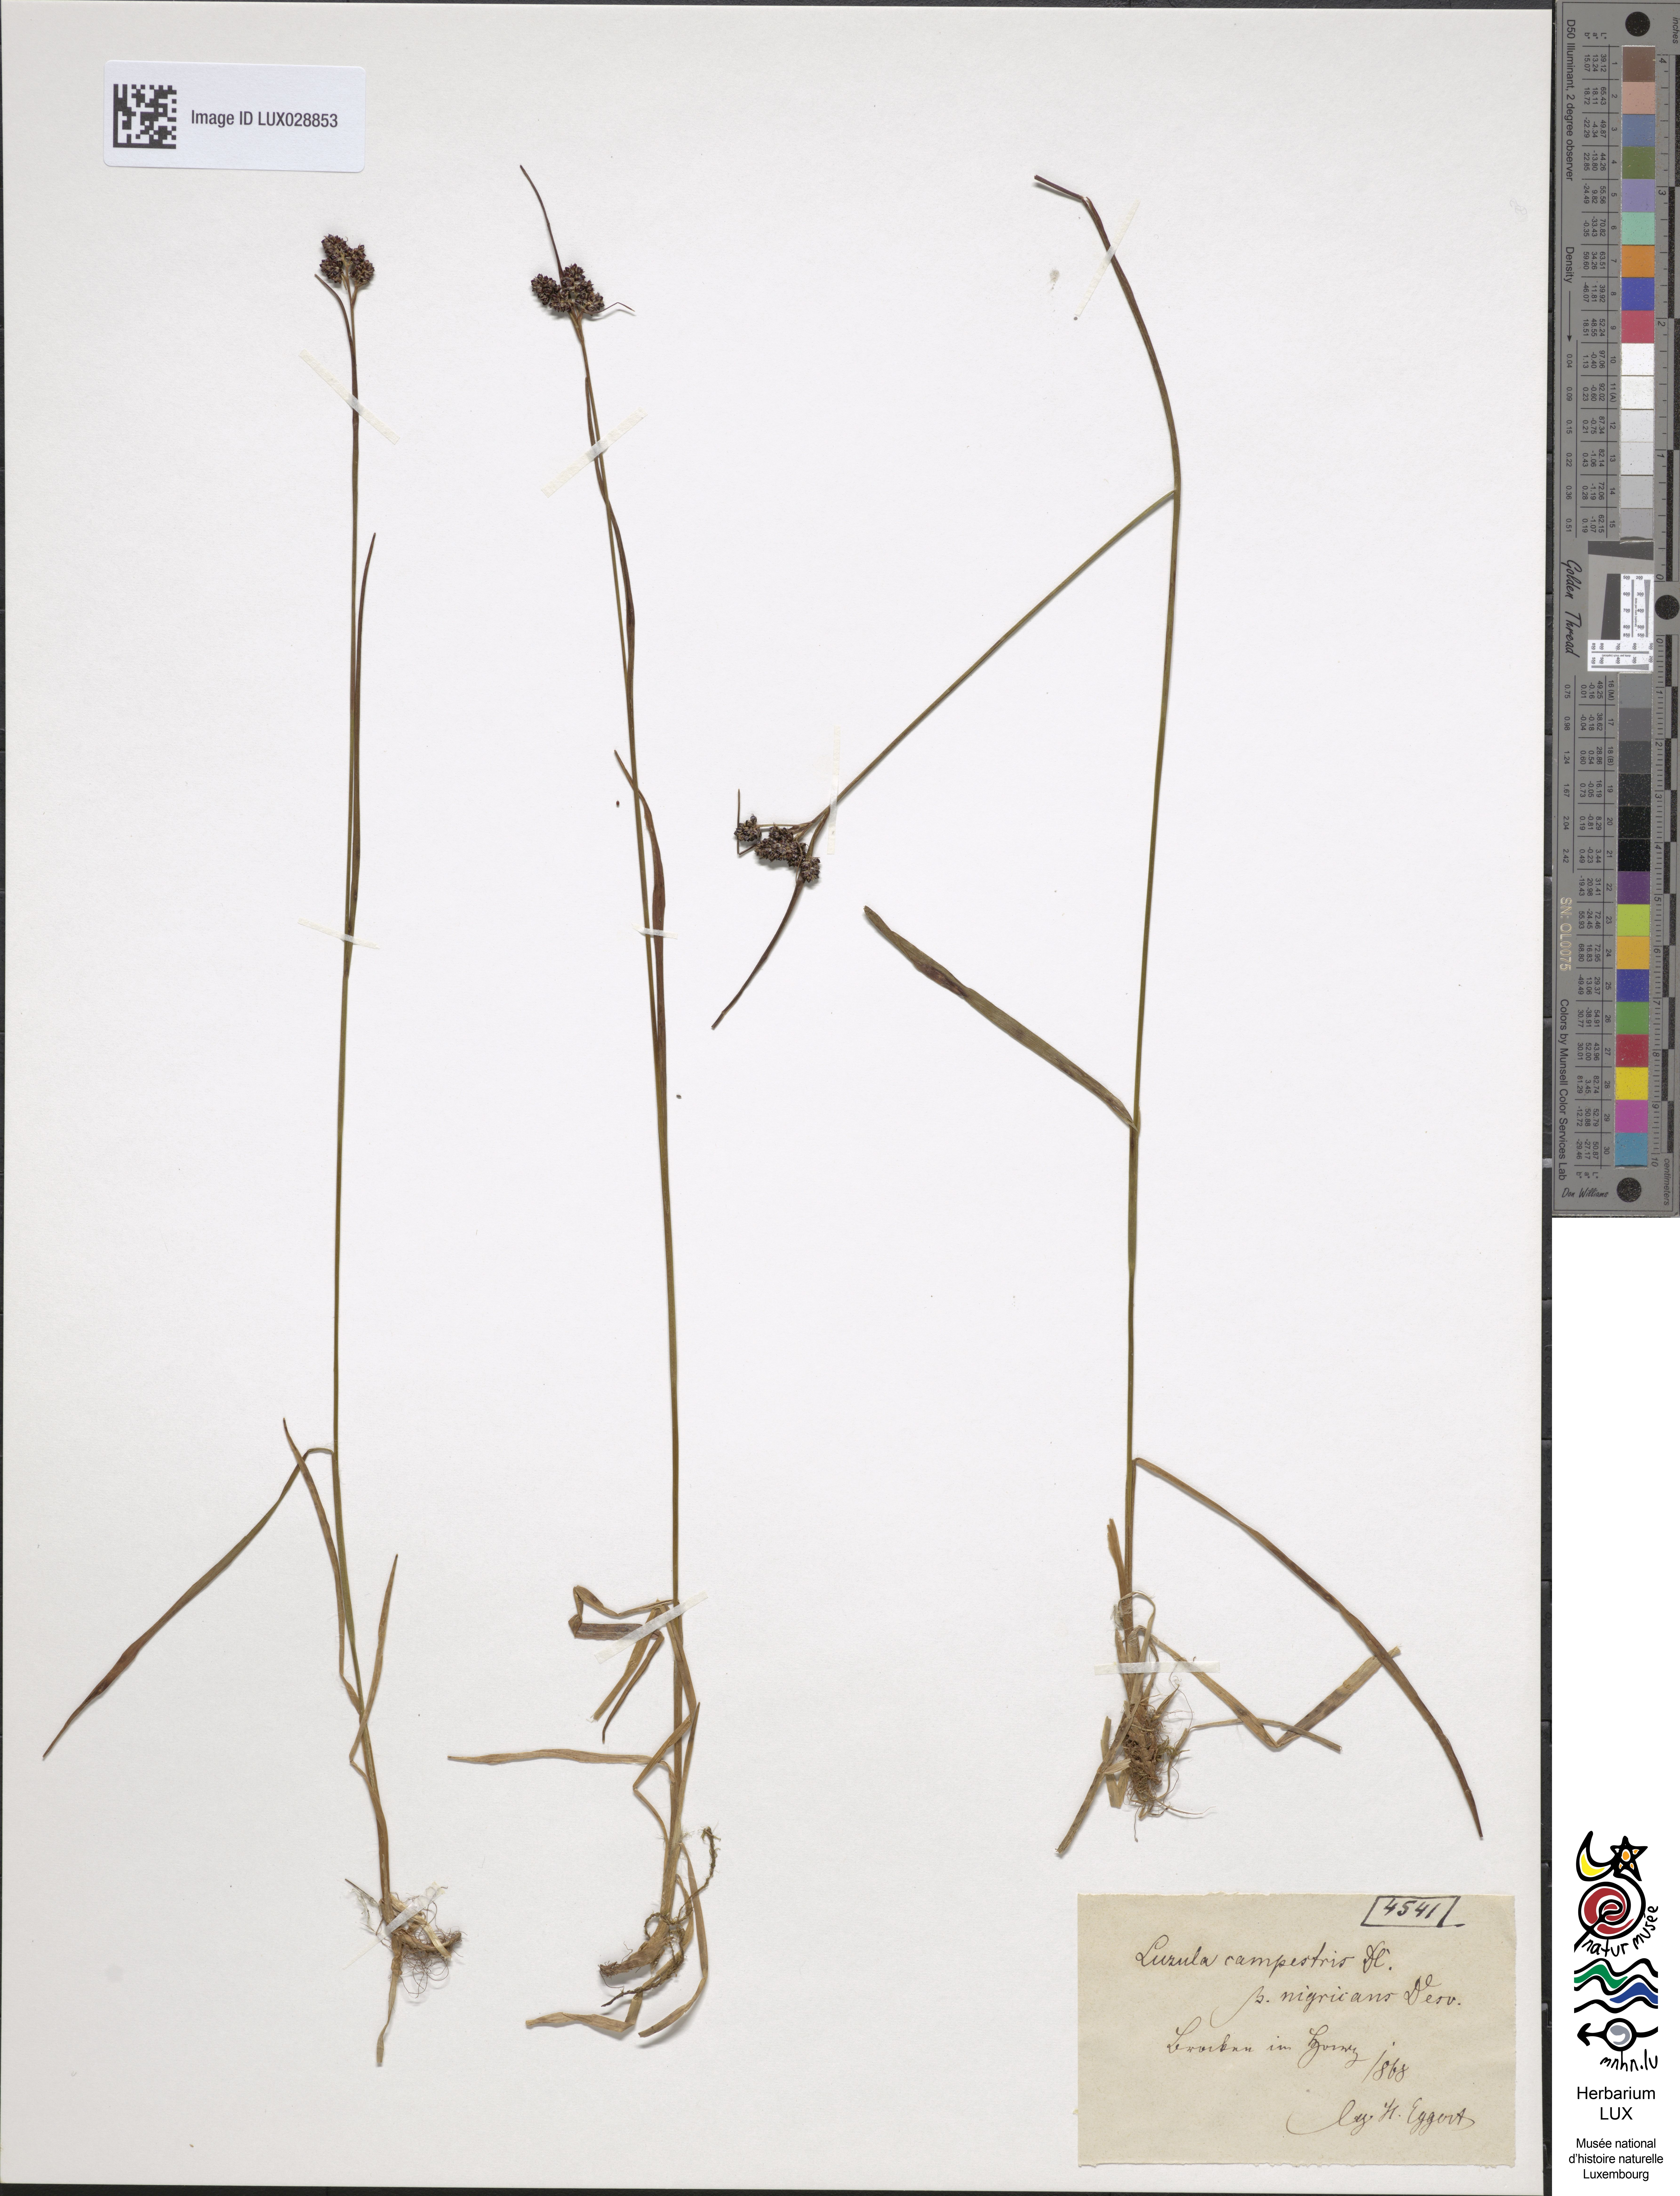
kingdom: Plantae
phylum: Tracheophyta
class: Liliopsida
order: Poales
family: Juncaceae
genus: Luzula
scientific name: Luzula sudetica
